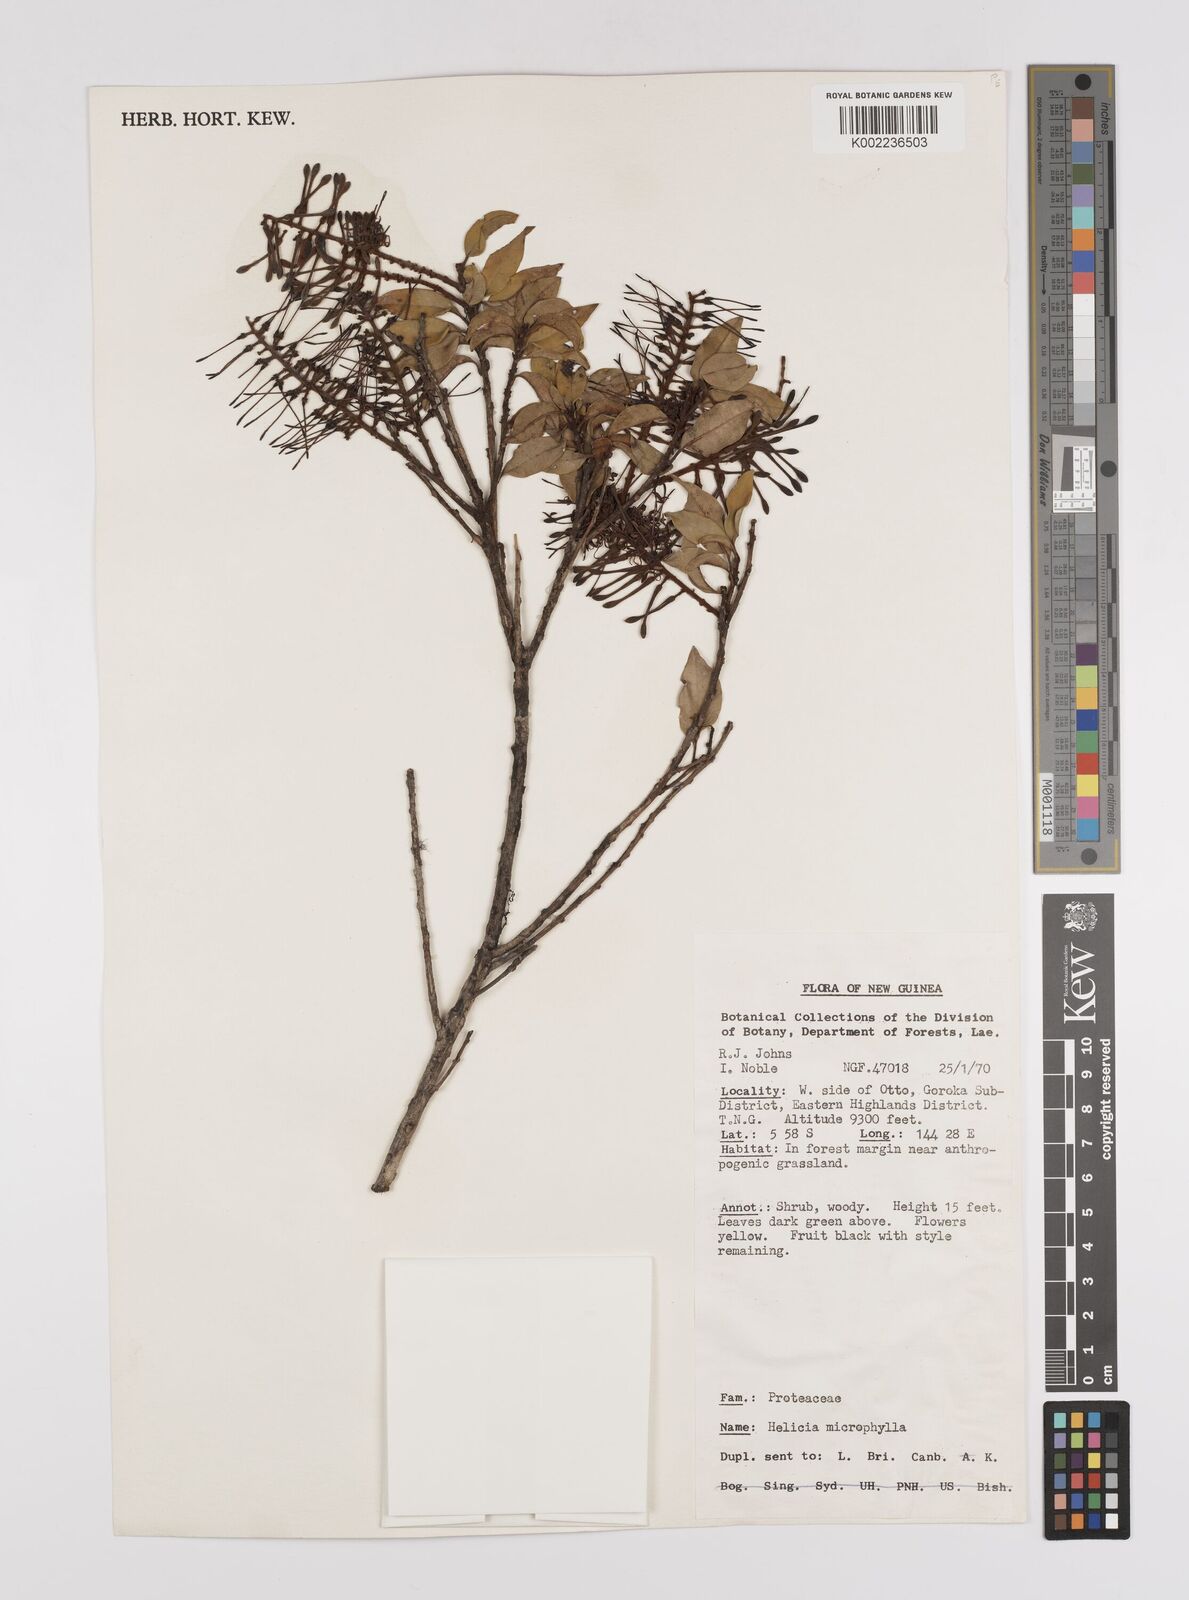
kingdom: Plantae
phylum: Tracheophyta
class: Magnoliopsida
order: Proteales
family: Proteaceae
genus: Helicia
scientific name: Helicia microphylla
